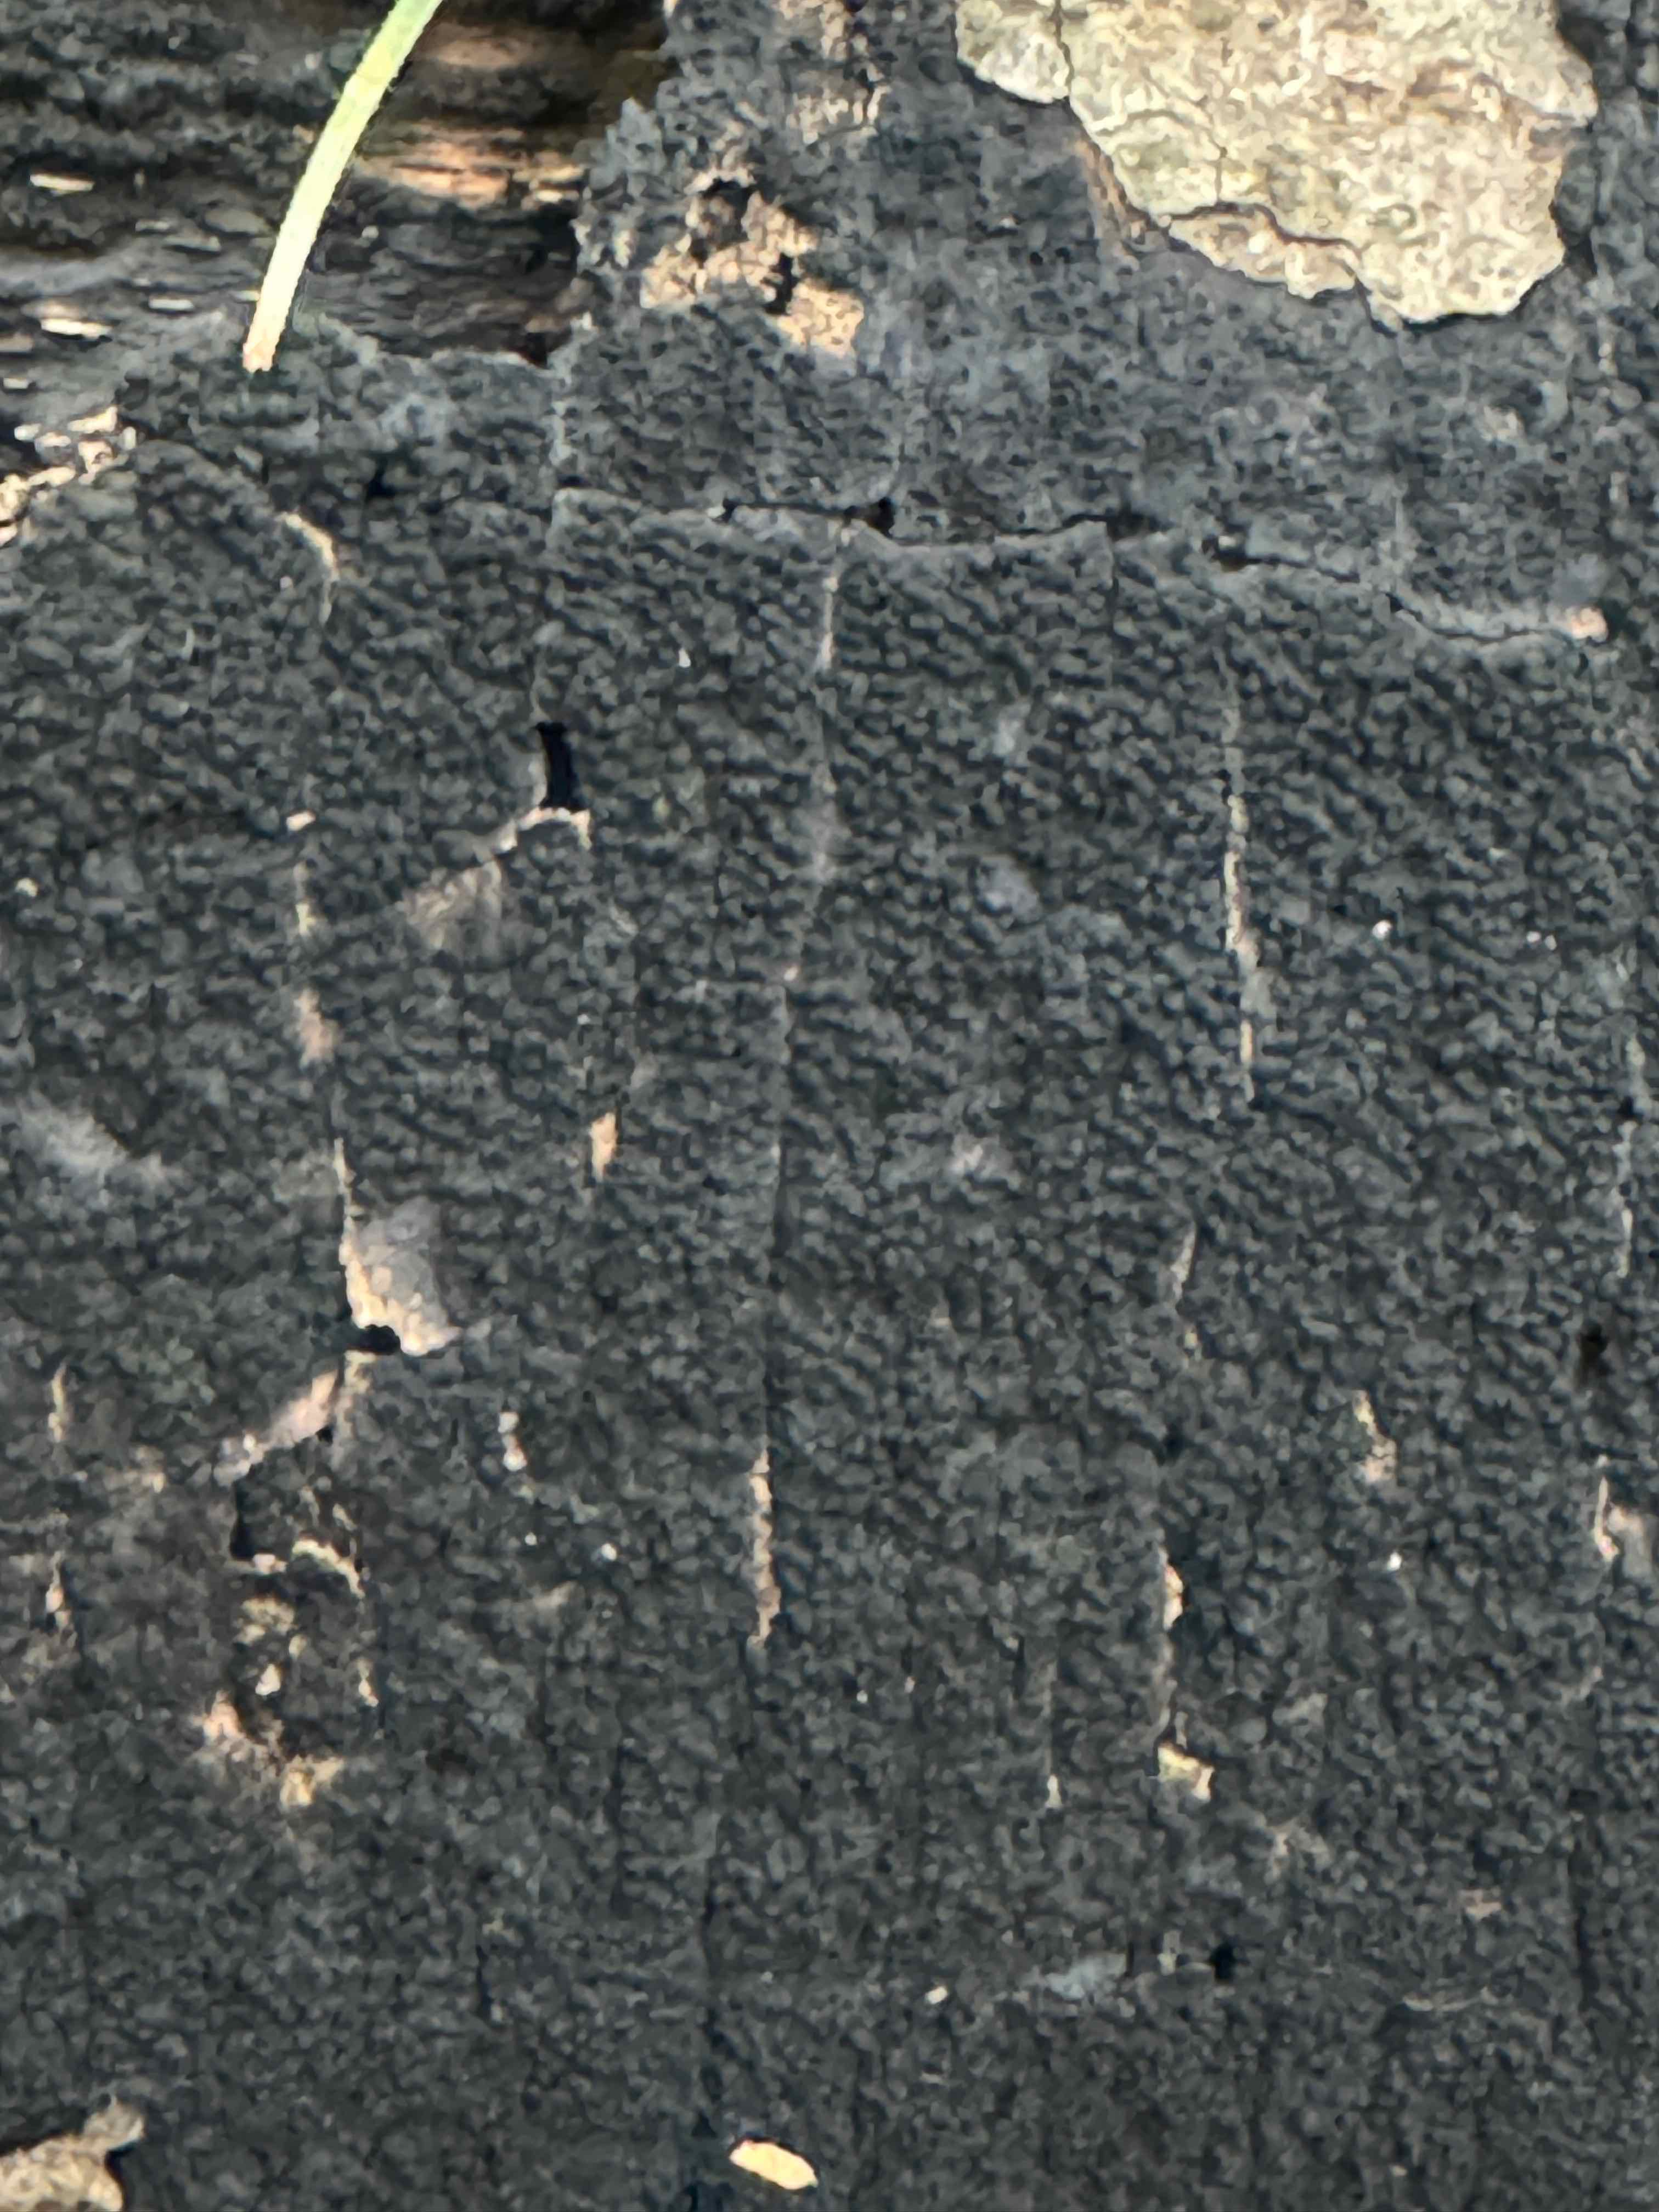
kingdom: Fungi
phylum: Ascomycota
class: Sordariomycetes
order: Xylariales
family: Diatrypaceae
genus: Eutypa
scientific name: Eutypa spinosa
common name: grov kulskorpe
